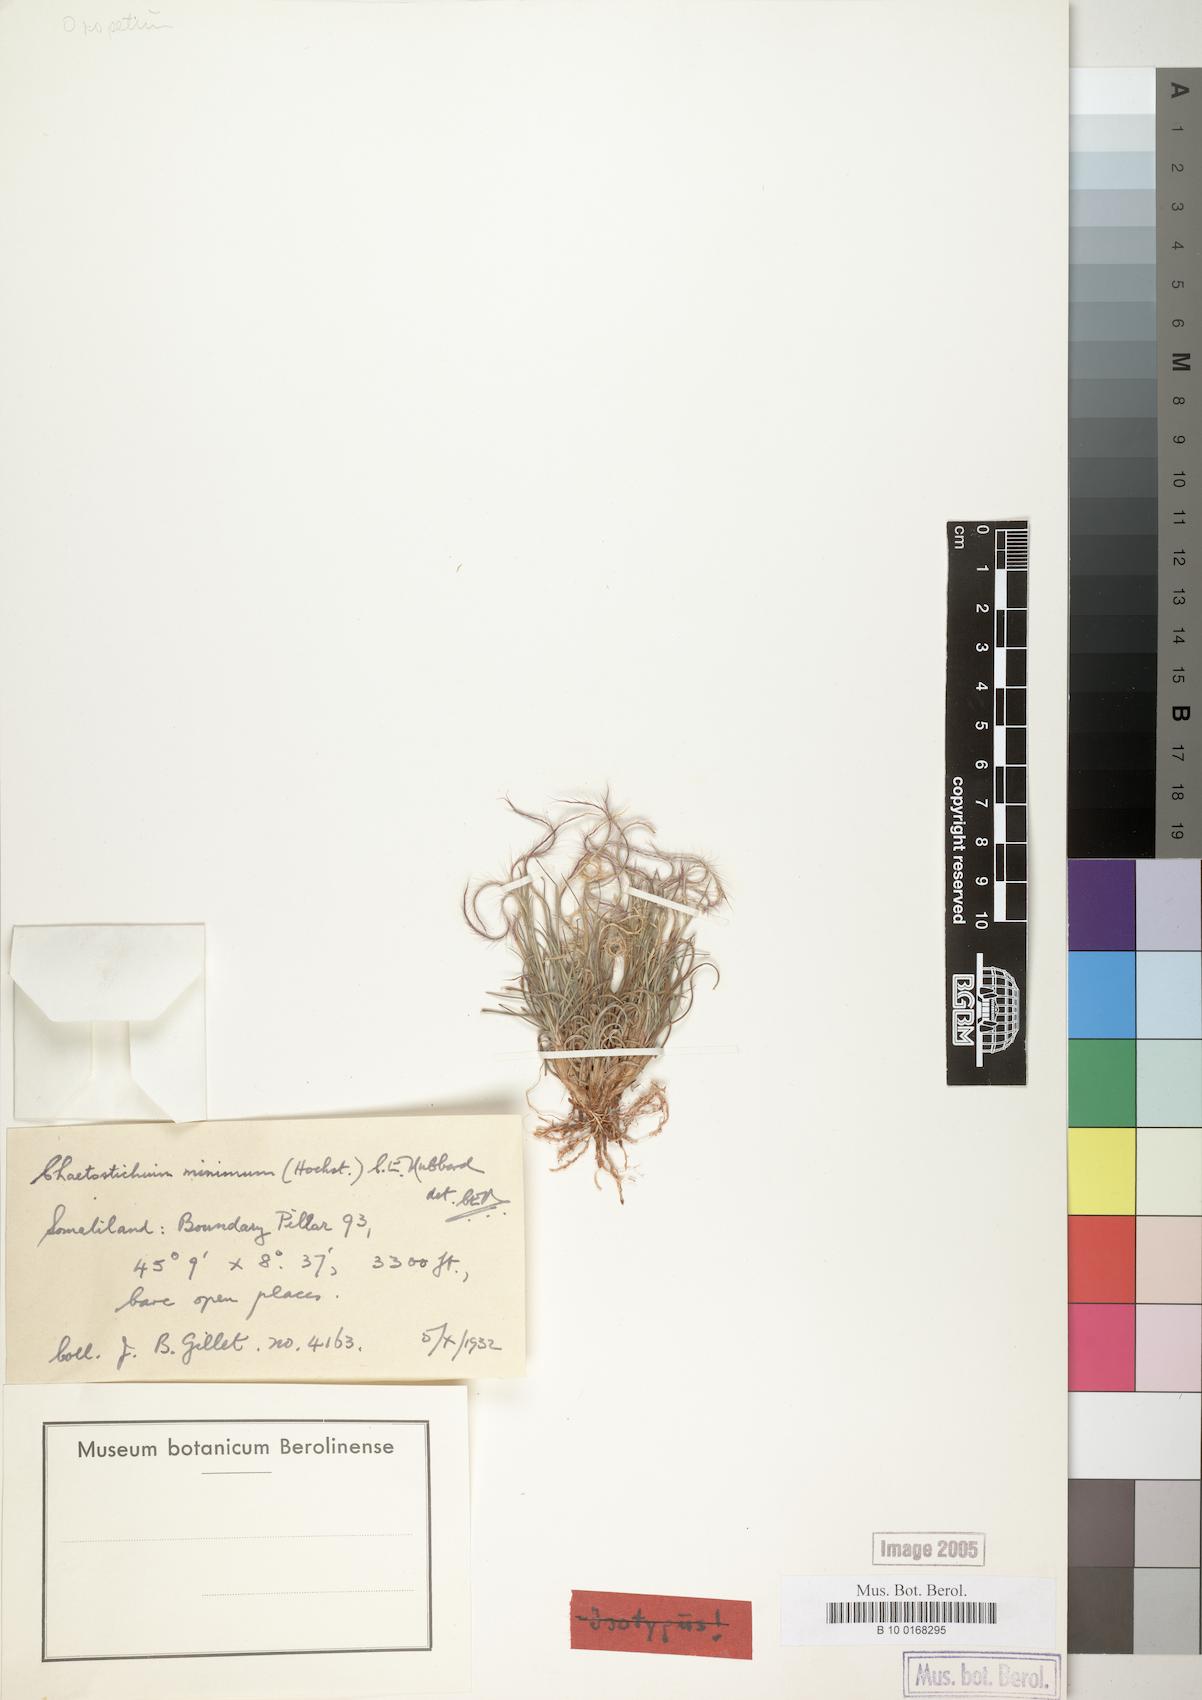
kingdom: Plantae
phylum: Tracheophyta
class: Liliopsida
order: Poales
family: Poaceae
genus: Oropetium
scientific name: Oropetium minimum
